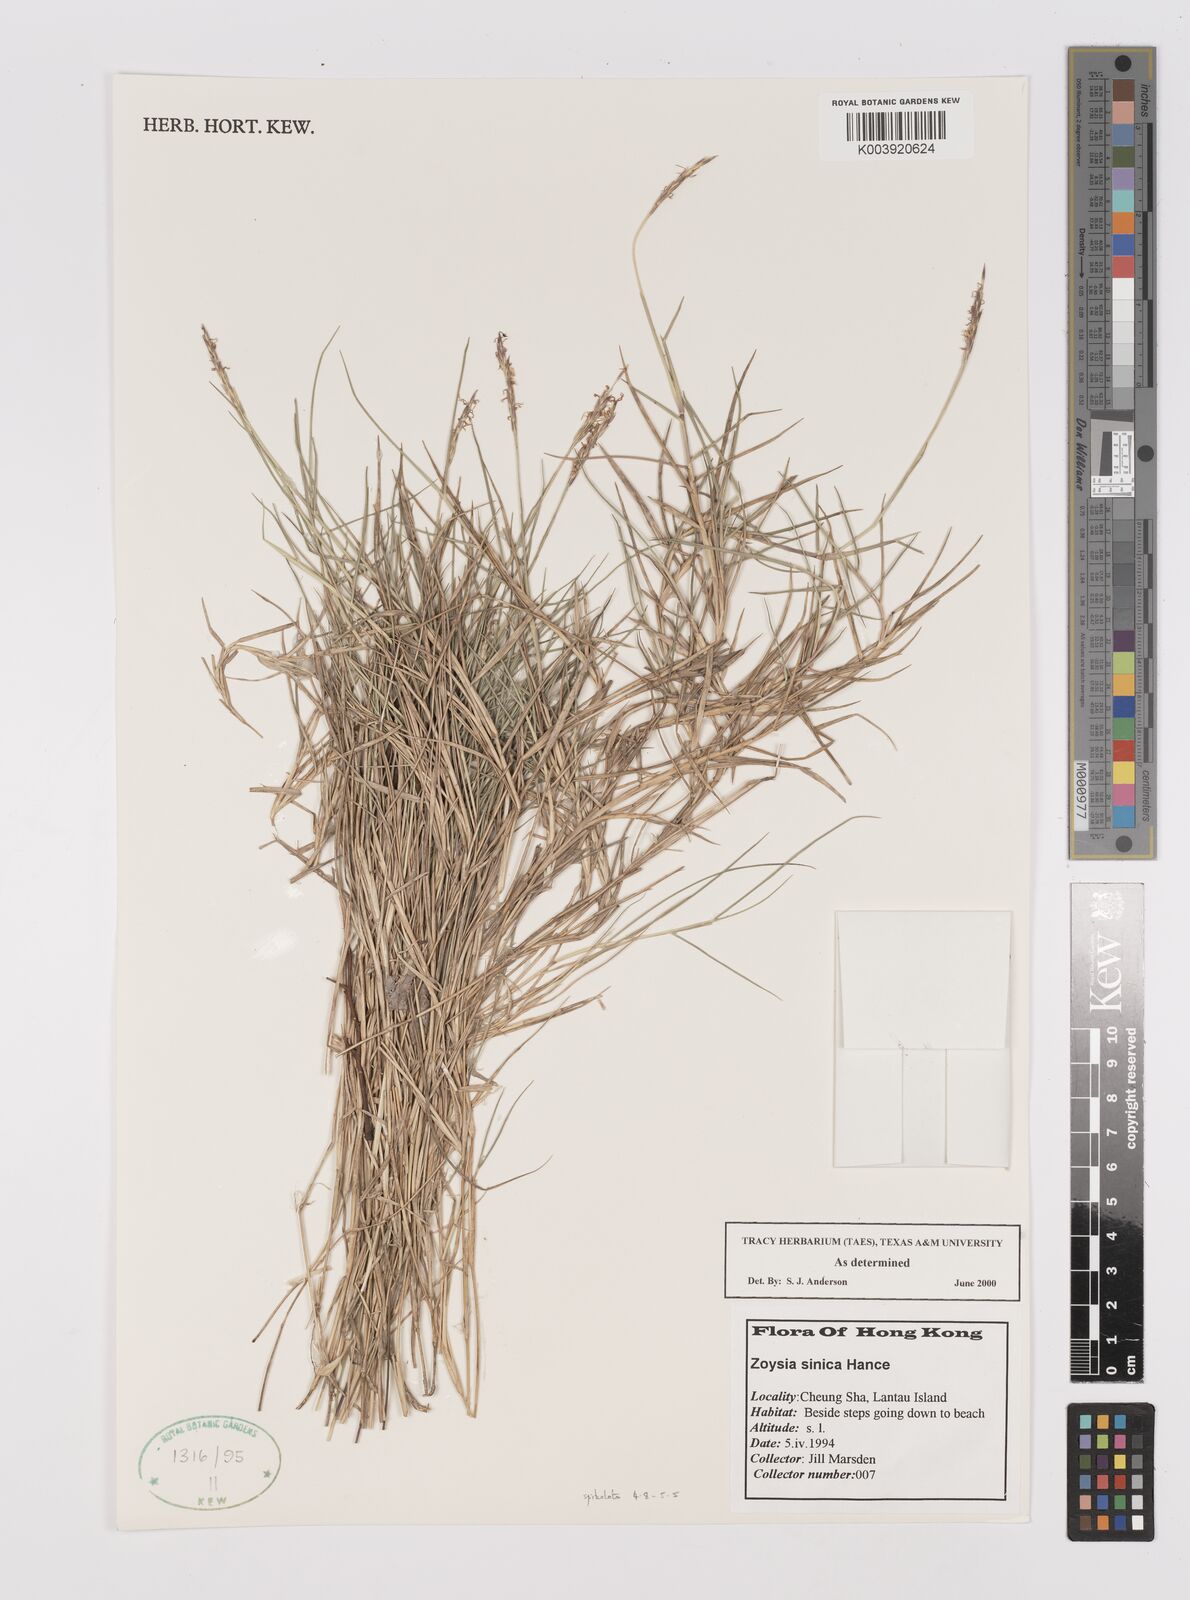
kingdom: Plantae
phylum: Tracheophyta
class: Liliopsida
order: Poales
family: Poaceae
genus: Zoysia
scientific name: Zoysia sinica
